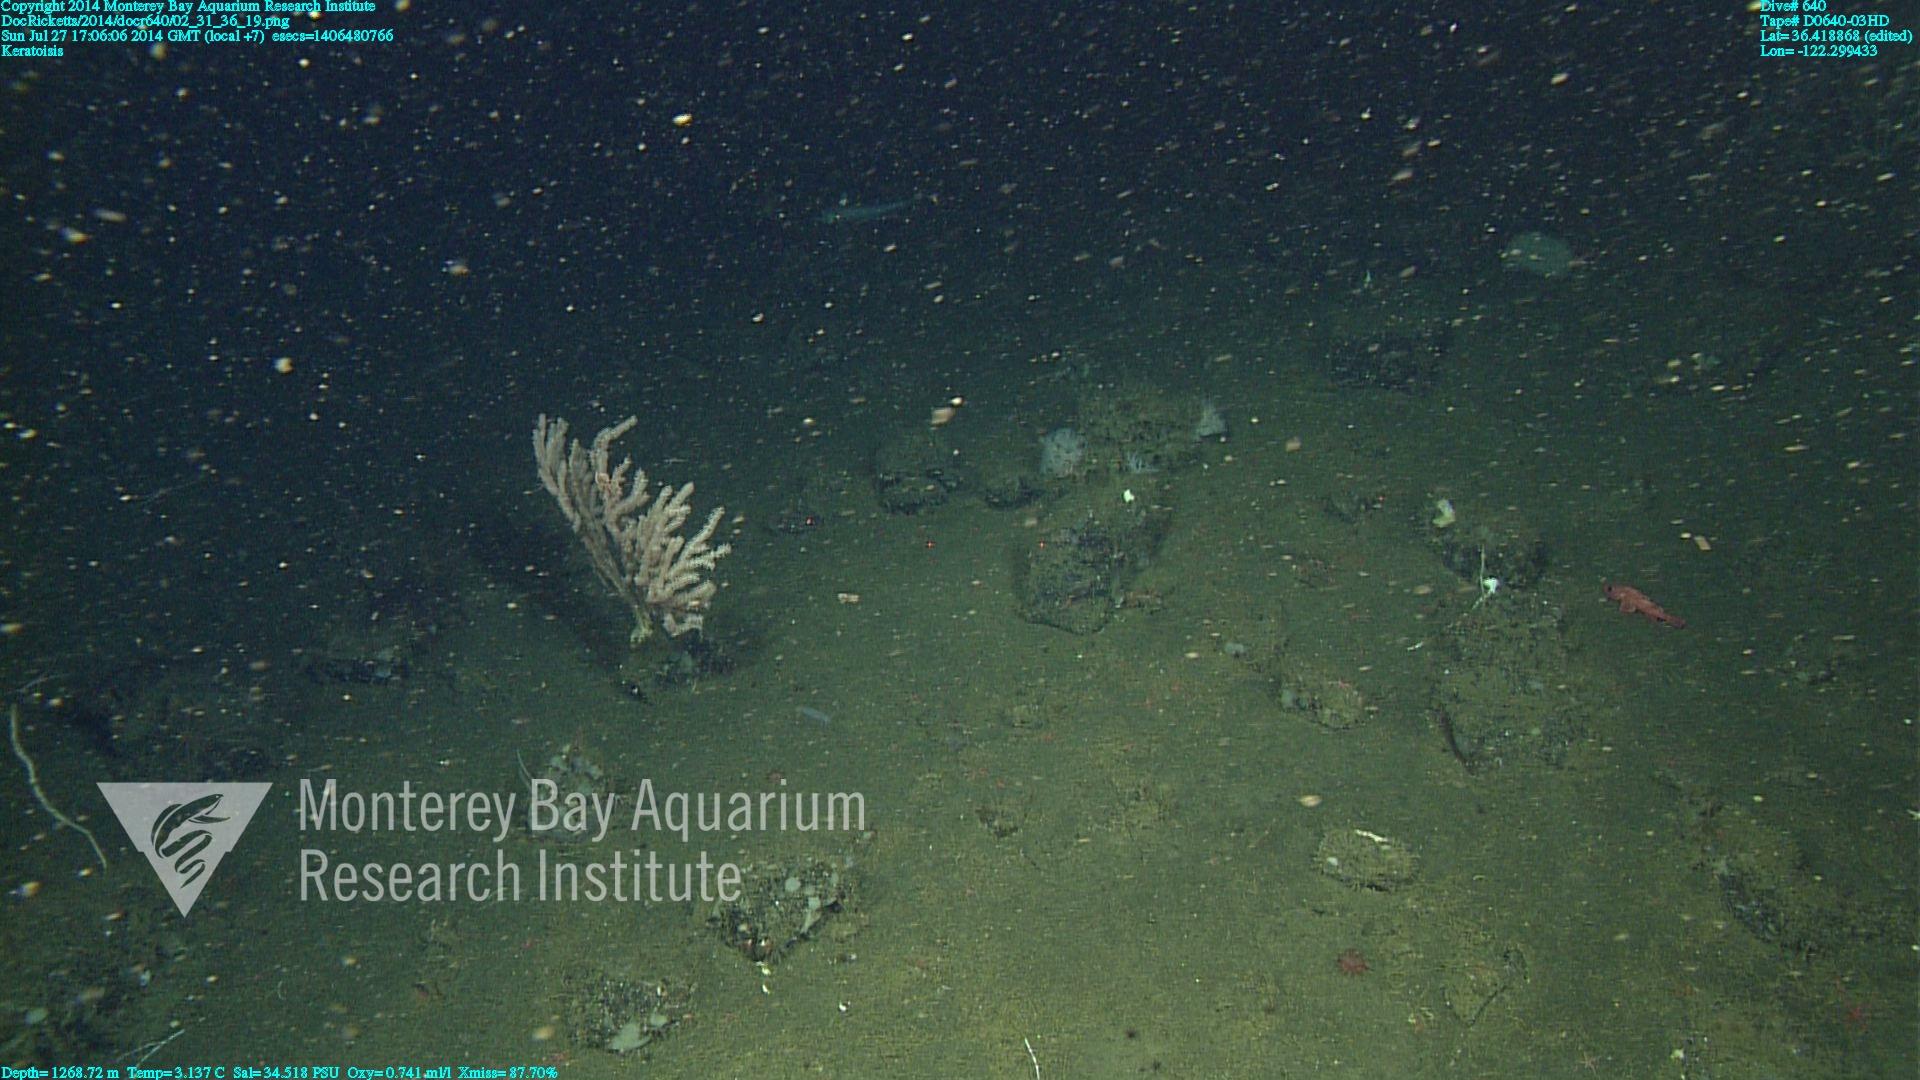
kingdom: Animalia
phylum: Cnidaria
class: Anthozoa
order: Scleralcyonacea
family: Keratoisididae
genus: Keratoisis
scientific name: Keratoisis
